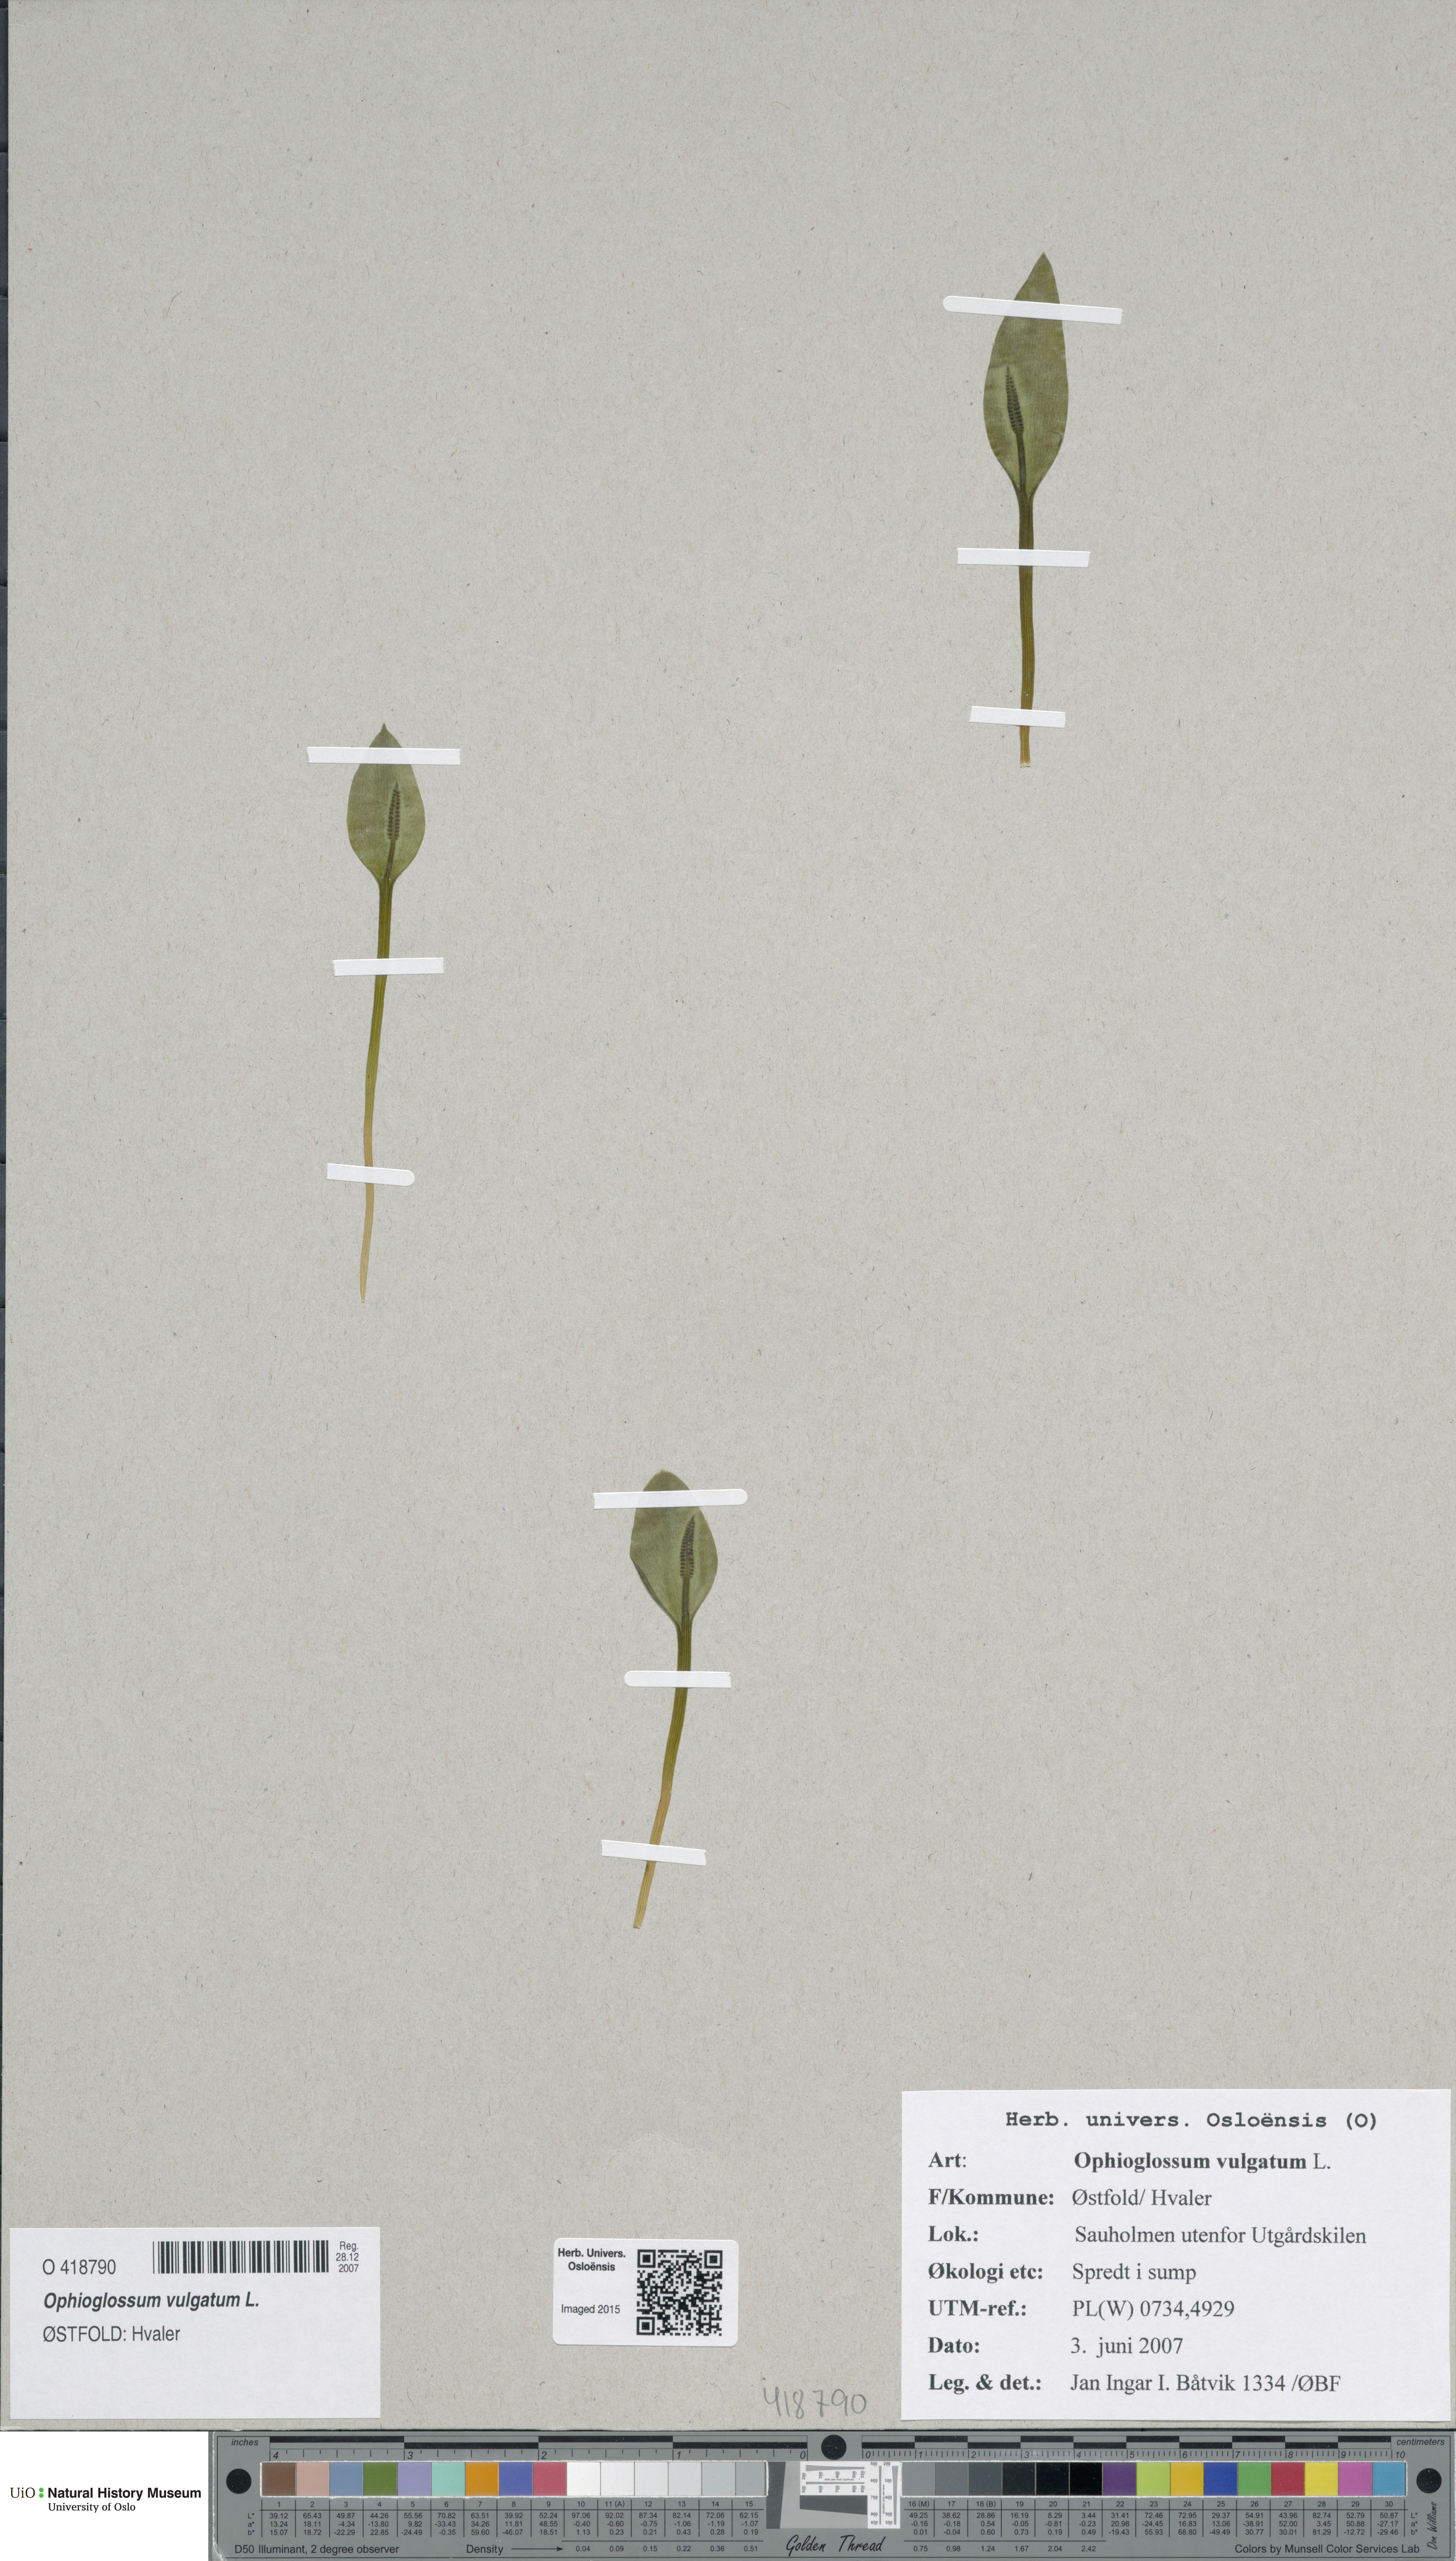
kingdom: Plantae
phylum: Tracheophyta
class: Polypodiopsida
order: Ophioglossales
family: Ophioglossaceae
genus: Ophioglossum
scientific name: Ophioglossum vulgatum
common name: Adder's-tongue
